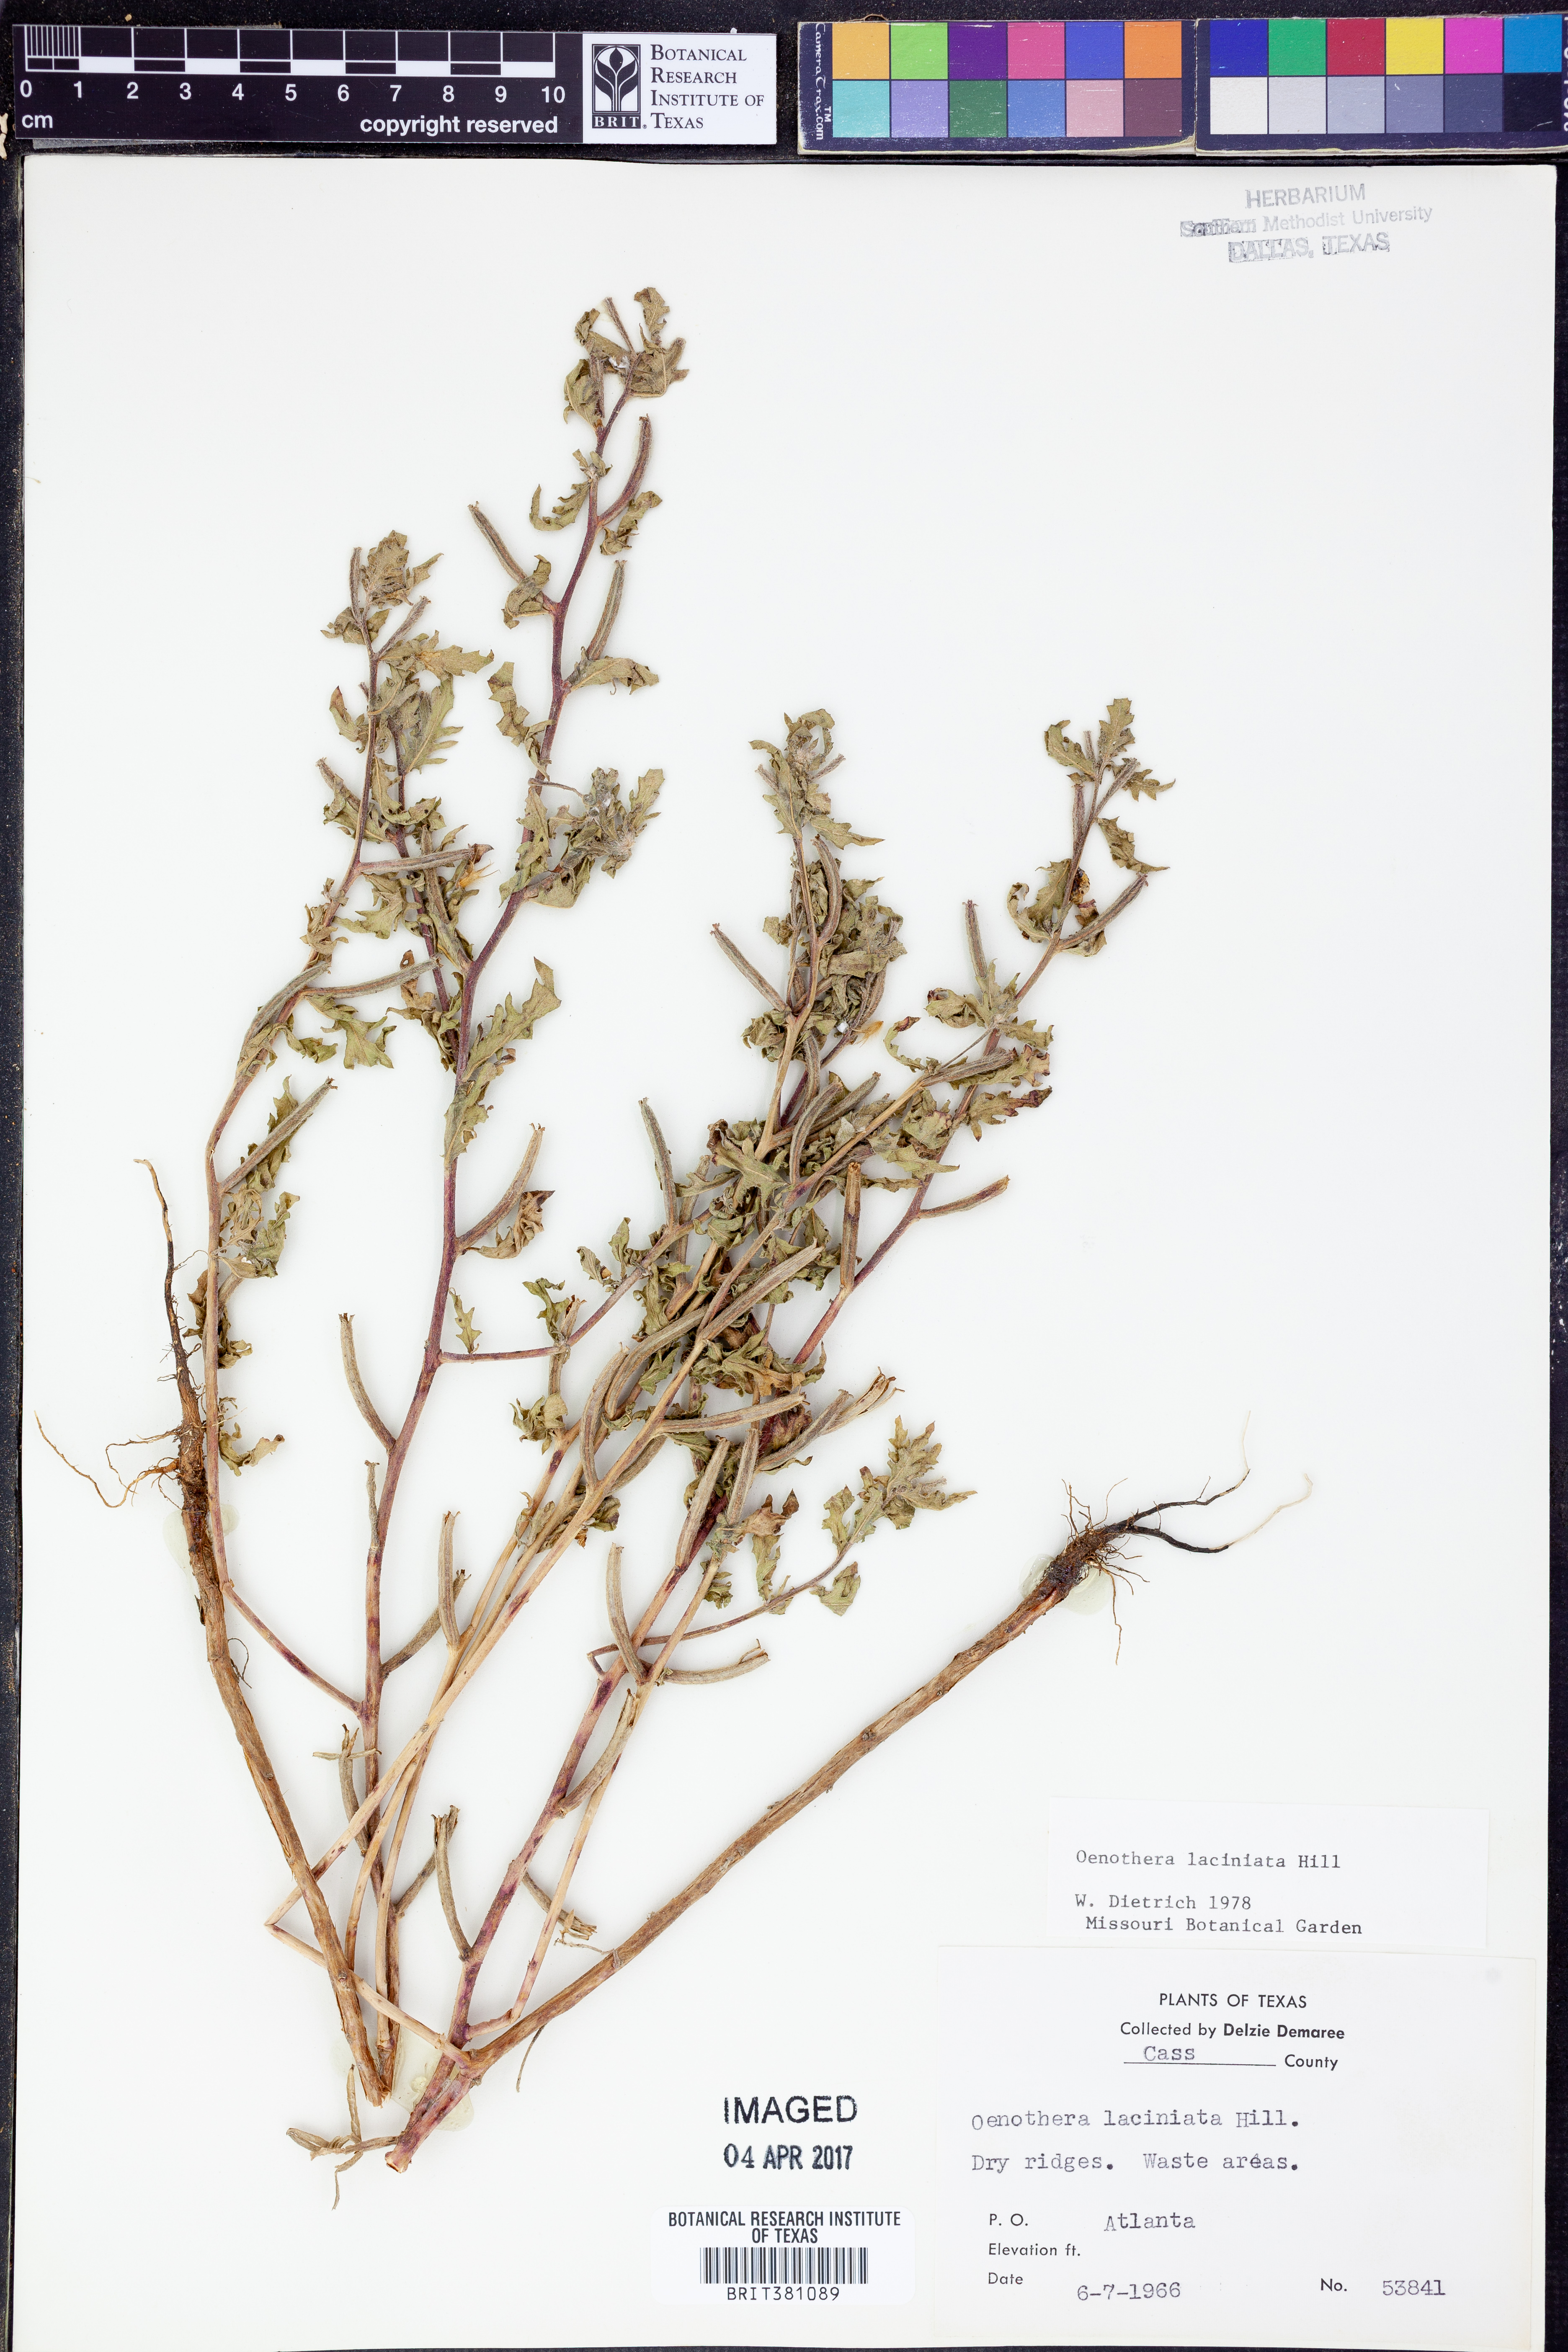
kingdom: Plantae
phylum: Tracheophyta
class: Magnoliopsida
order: Myrtales
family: Onagraceae
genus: Oenothera
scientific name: Oenothera laciniata
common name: Cut-leaved evening-primrose
